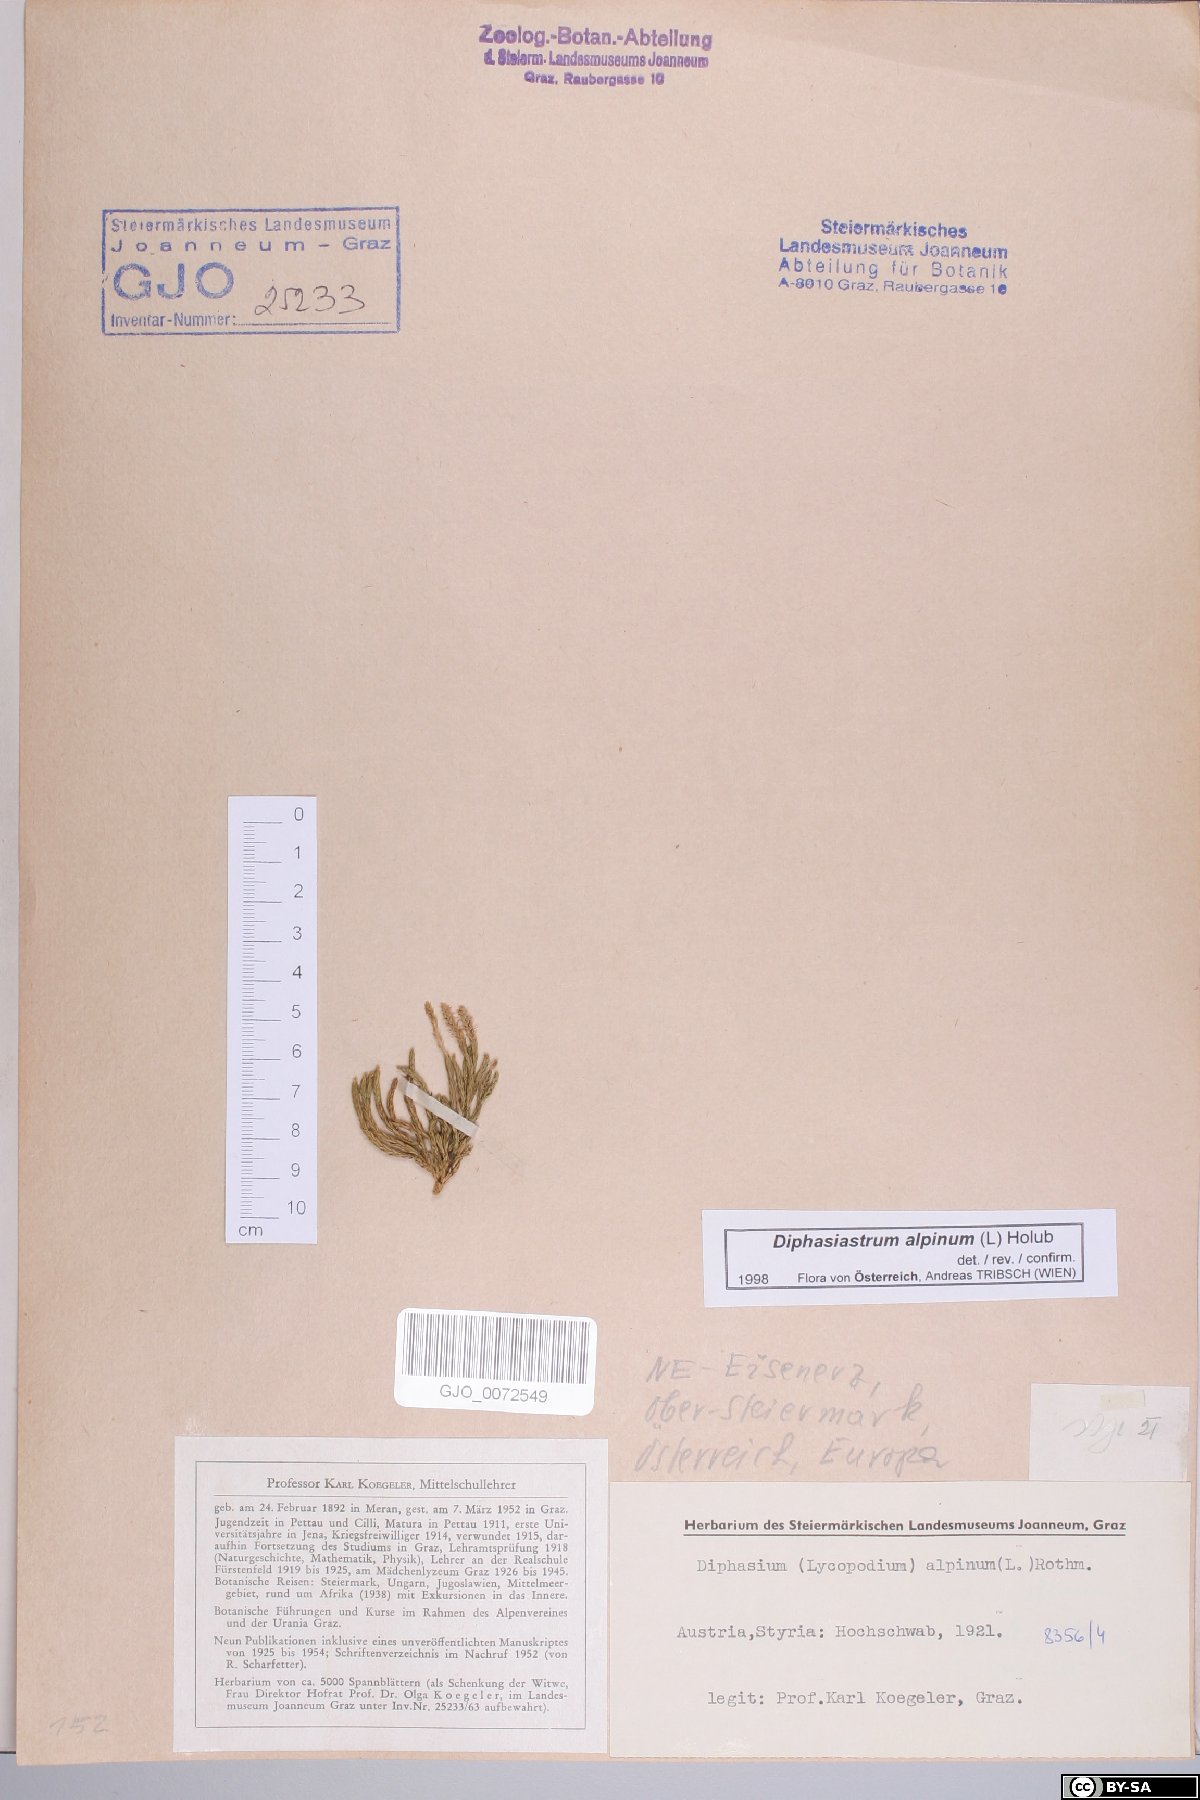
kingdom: Plantae
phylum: Tracheophyta
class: Lycopodiopsida
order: Lycopodiales
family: Lycopodiaceae
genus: Diphasiastrum
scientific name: Diphasiastrum alpinum
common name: Alpine clubmoss
